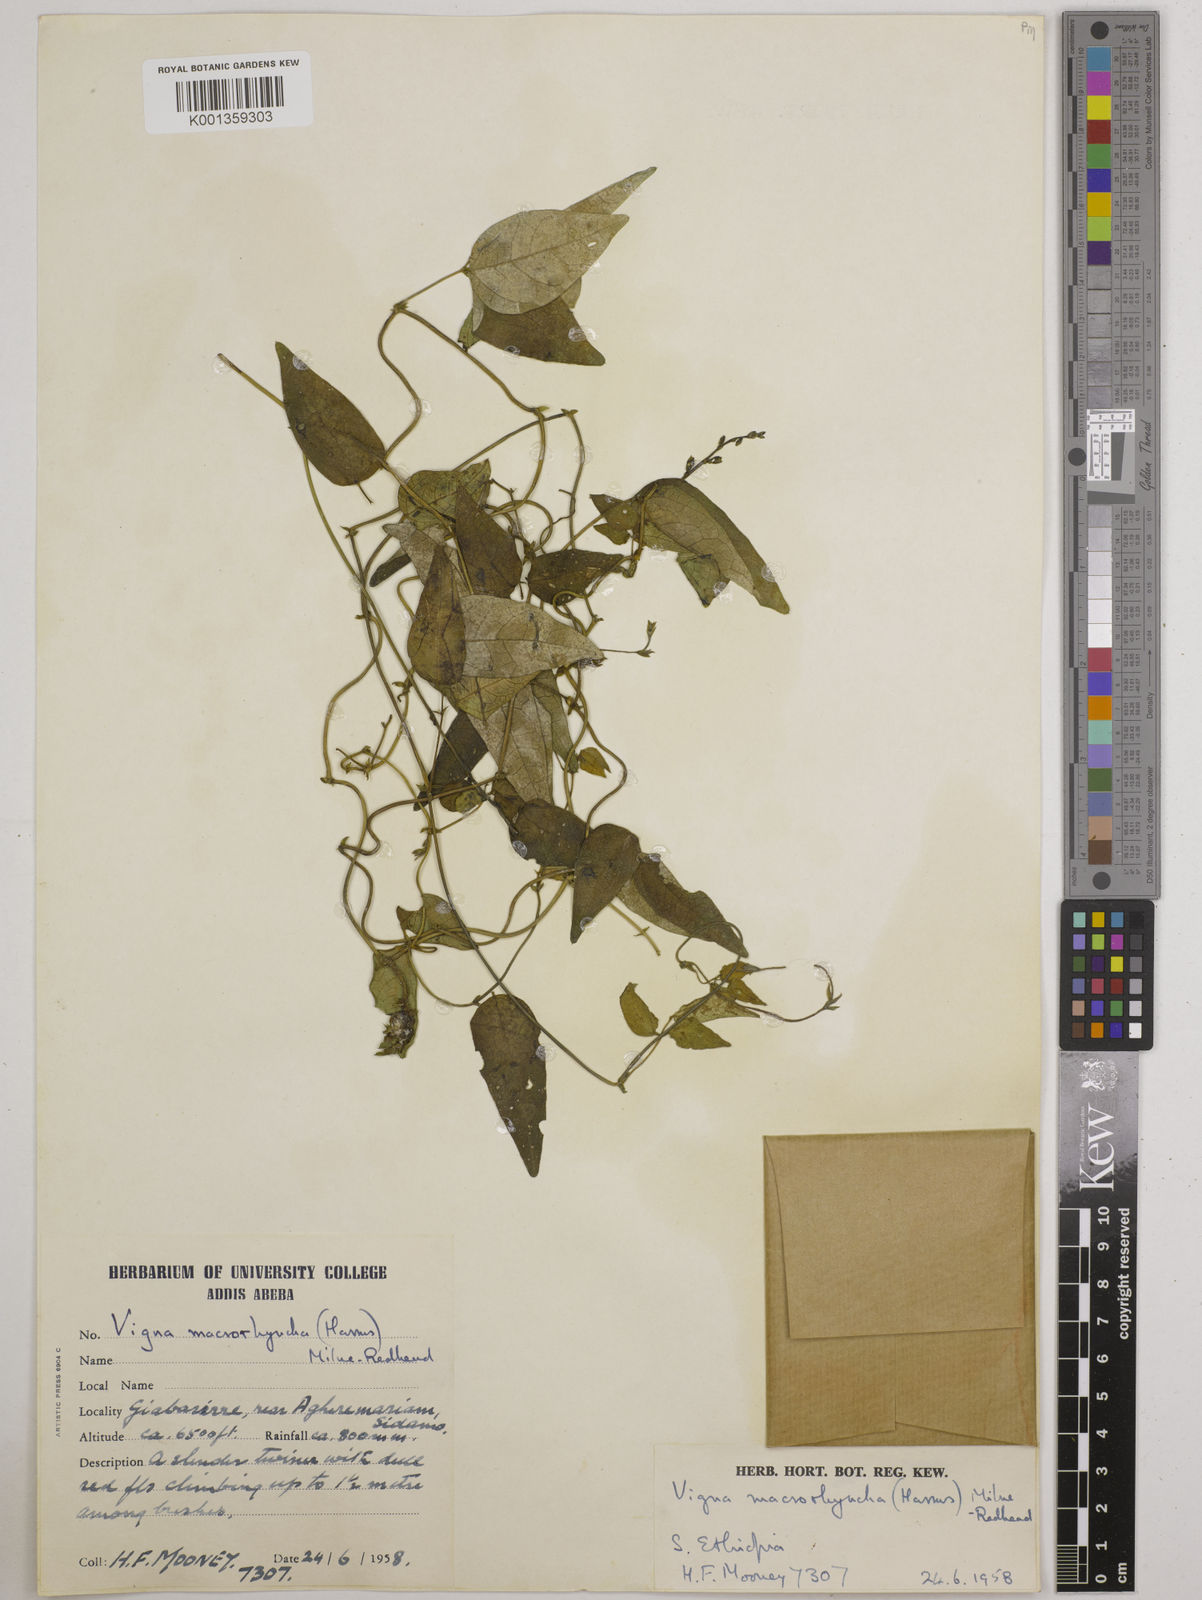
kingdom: Plantae
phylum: Tracheophyta
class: Magnoliopsida
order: Fabales
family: Fabaceae
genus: Wajira
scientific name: Wajira grahamiana
